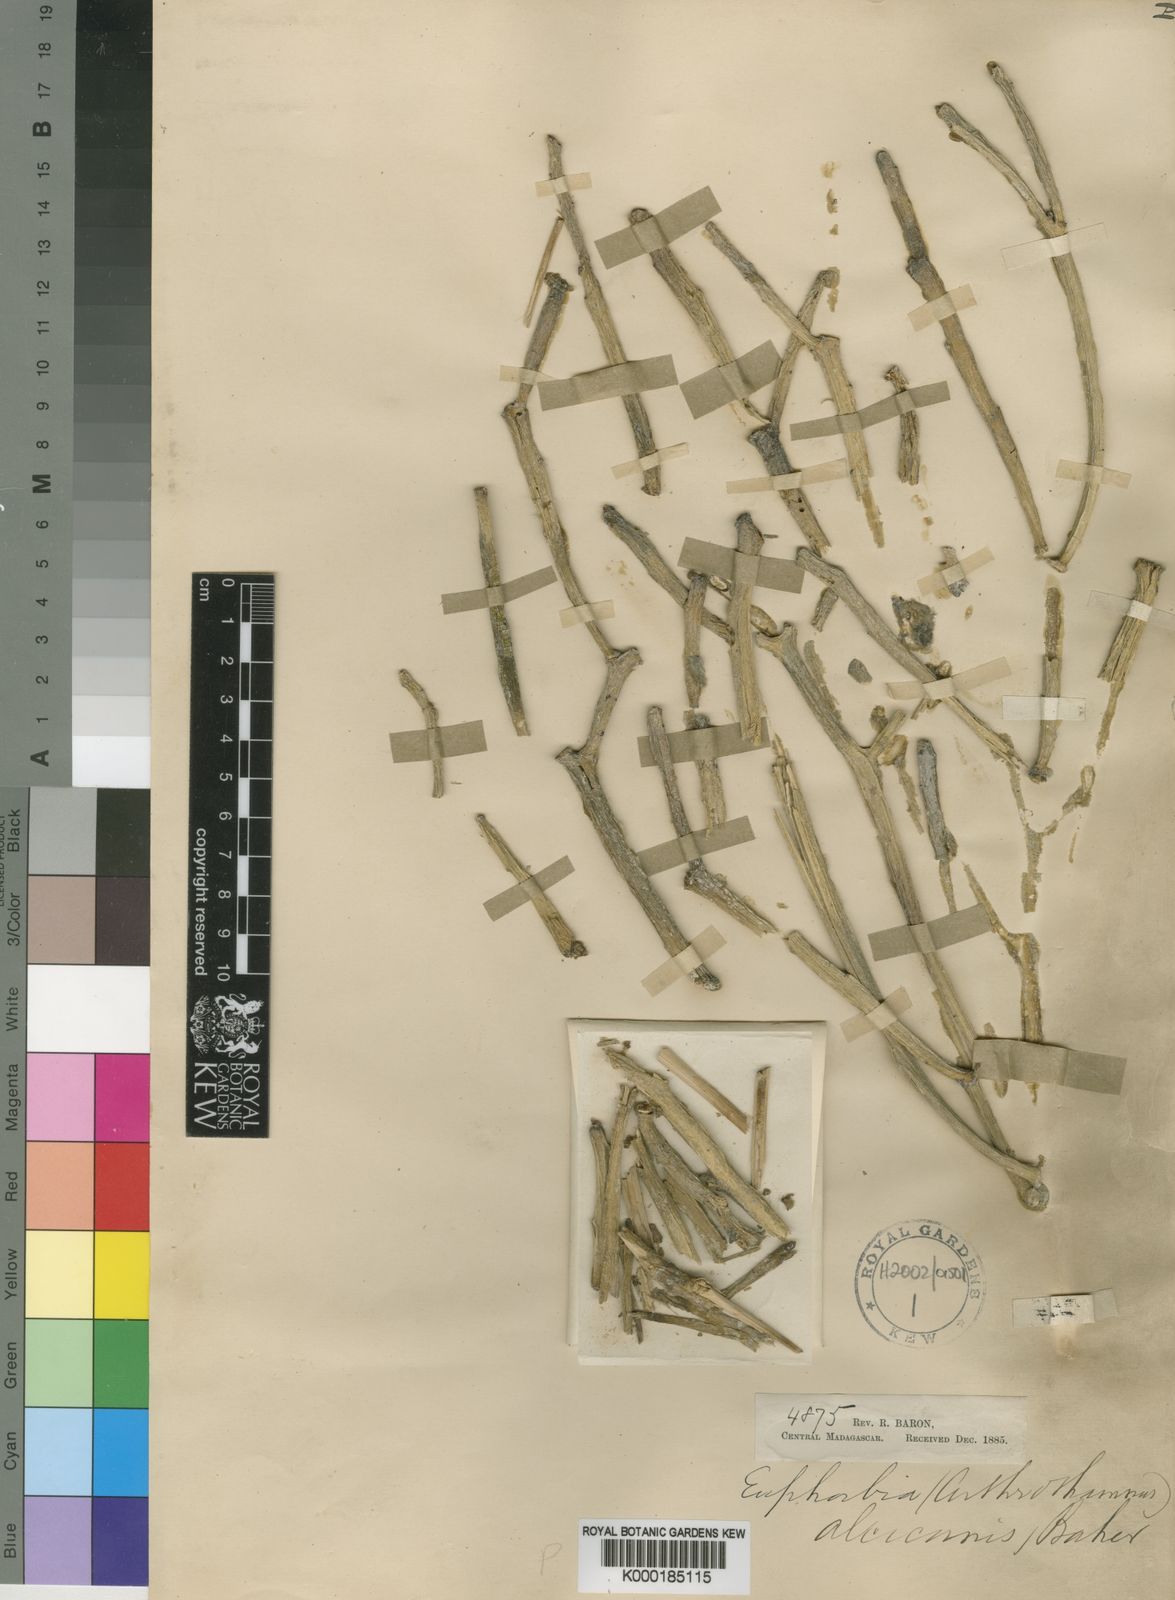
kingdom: Plantae
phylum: Tracheophyta
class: Magnoliopsida
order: Malpighiales
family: Euphorbiaceae
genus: Euphorbia
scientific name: Euphorbia alcicornis
